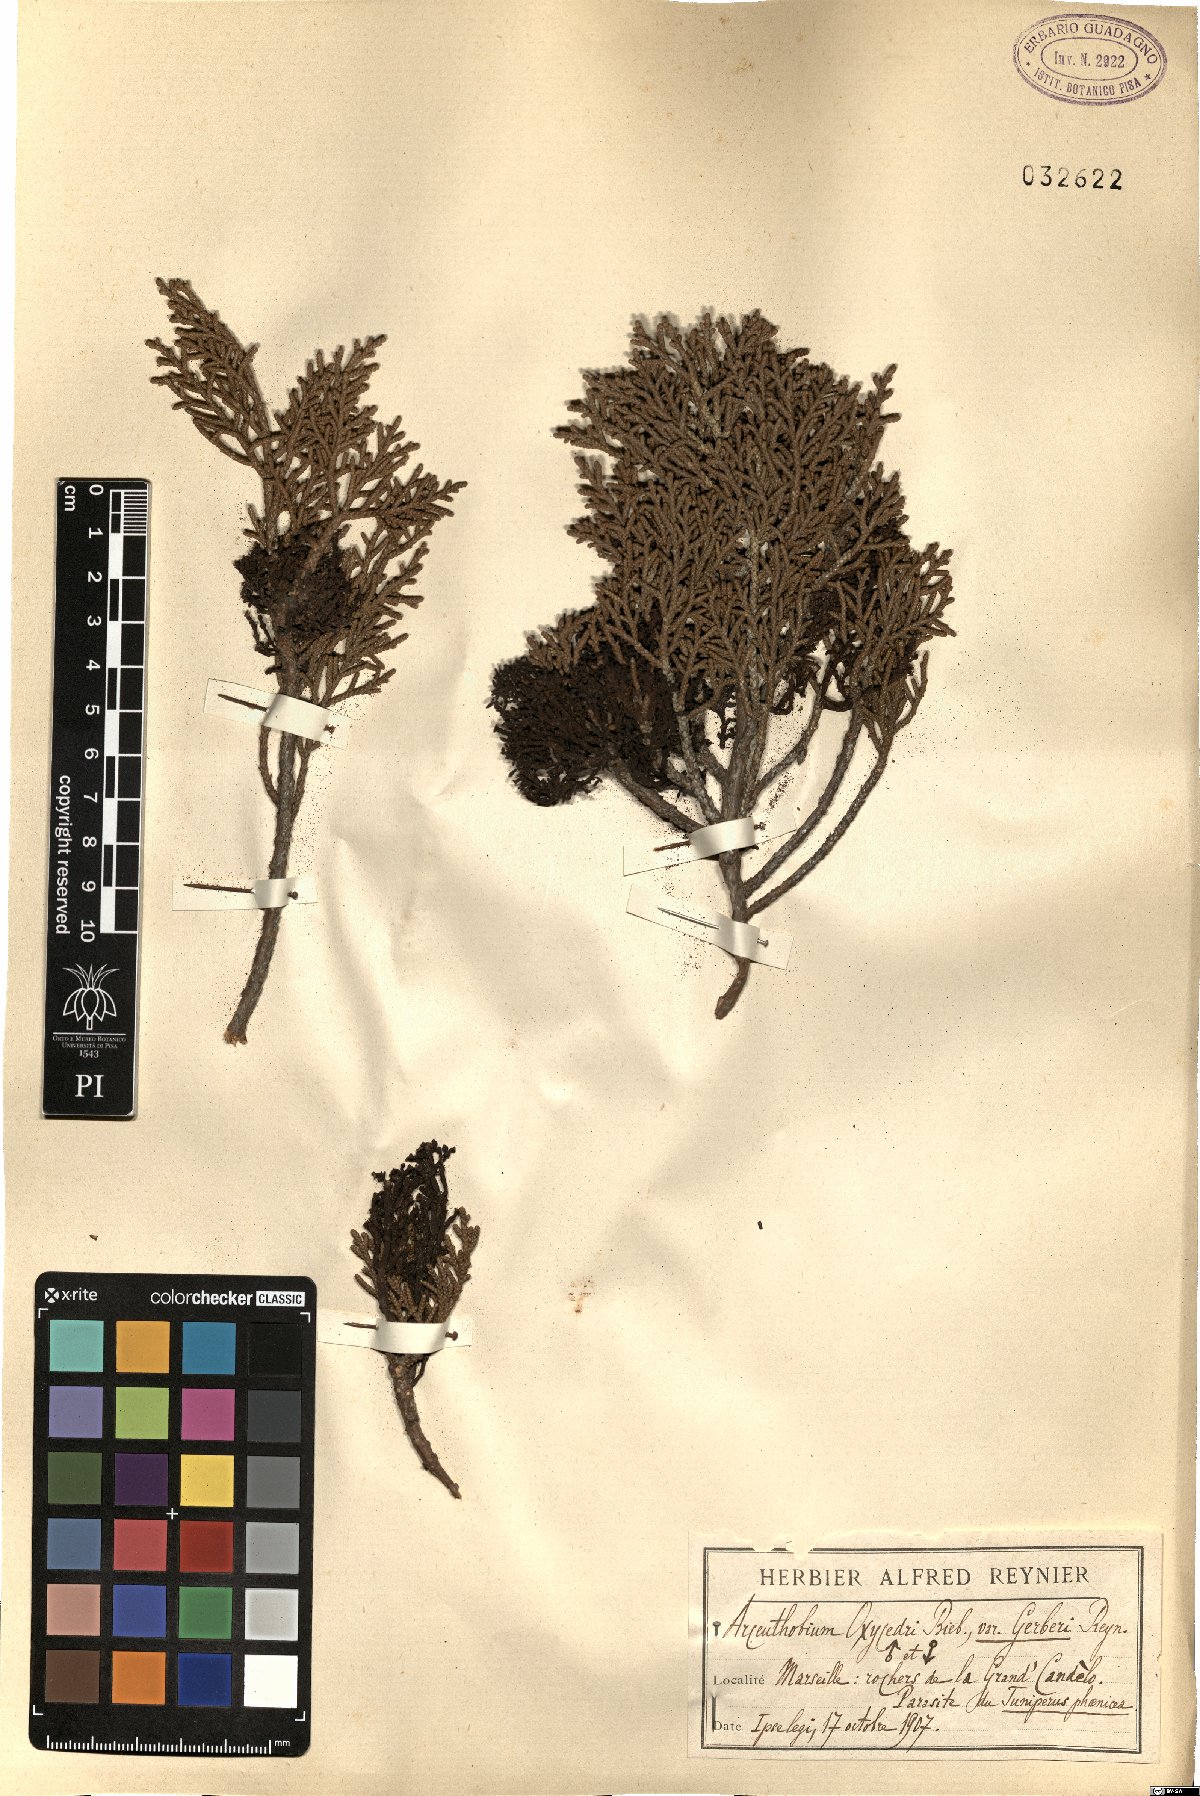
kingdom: Plantae
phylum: Tracheophyta
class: Magnoliopsida
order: Santalales
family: Viscaceae
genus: Arceuthobium
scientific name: Arceuthobium oxycedri
